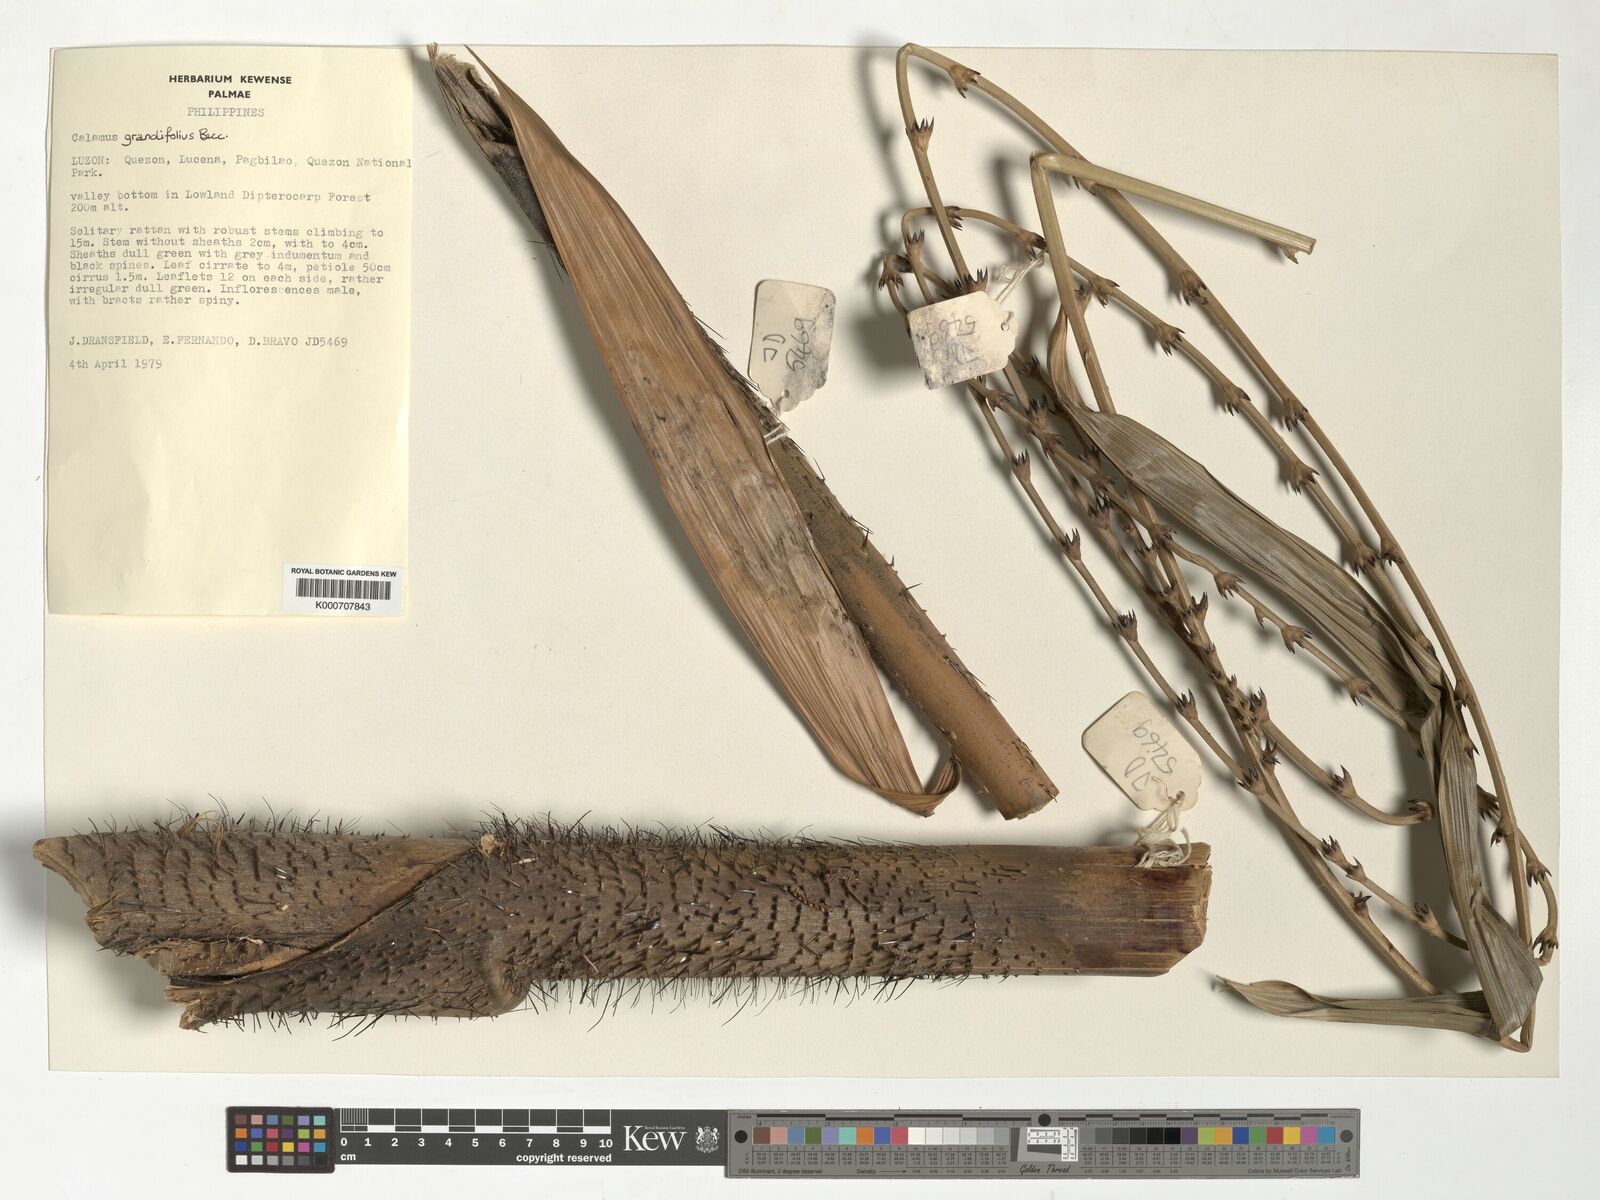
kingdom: Plantae
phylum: Tracheophyta
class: Liliopsida
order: Arecales
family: Arecaceae
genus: Calamus
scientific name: Calamus moseleyanus
